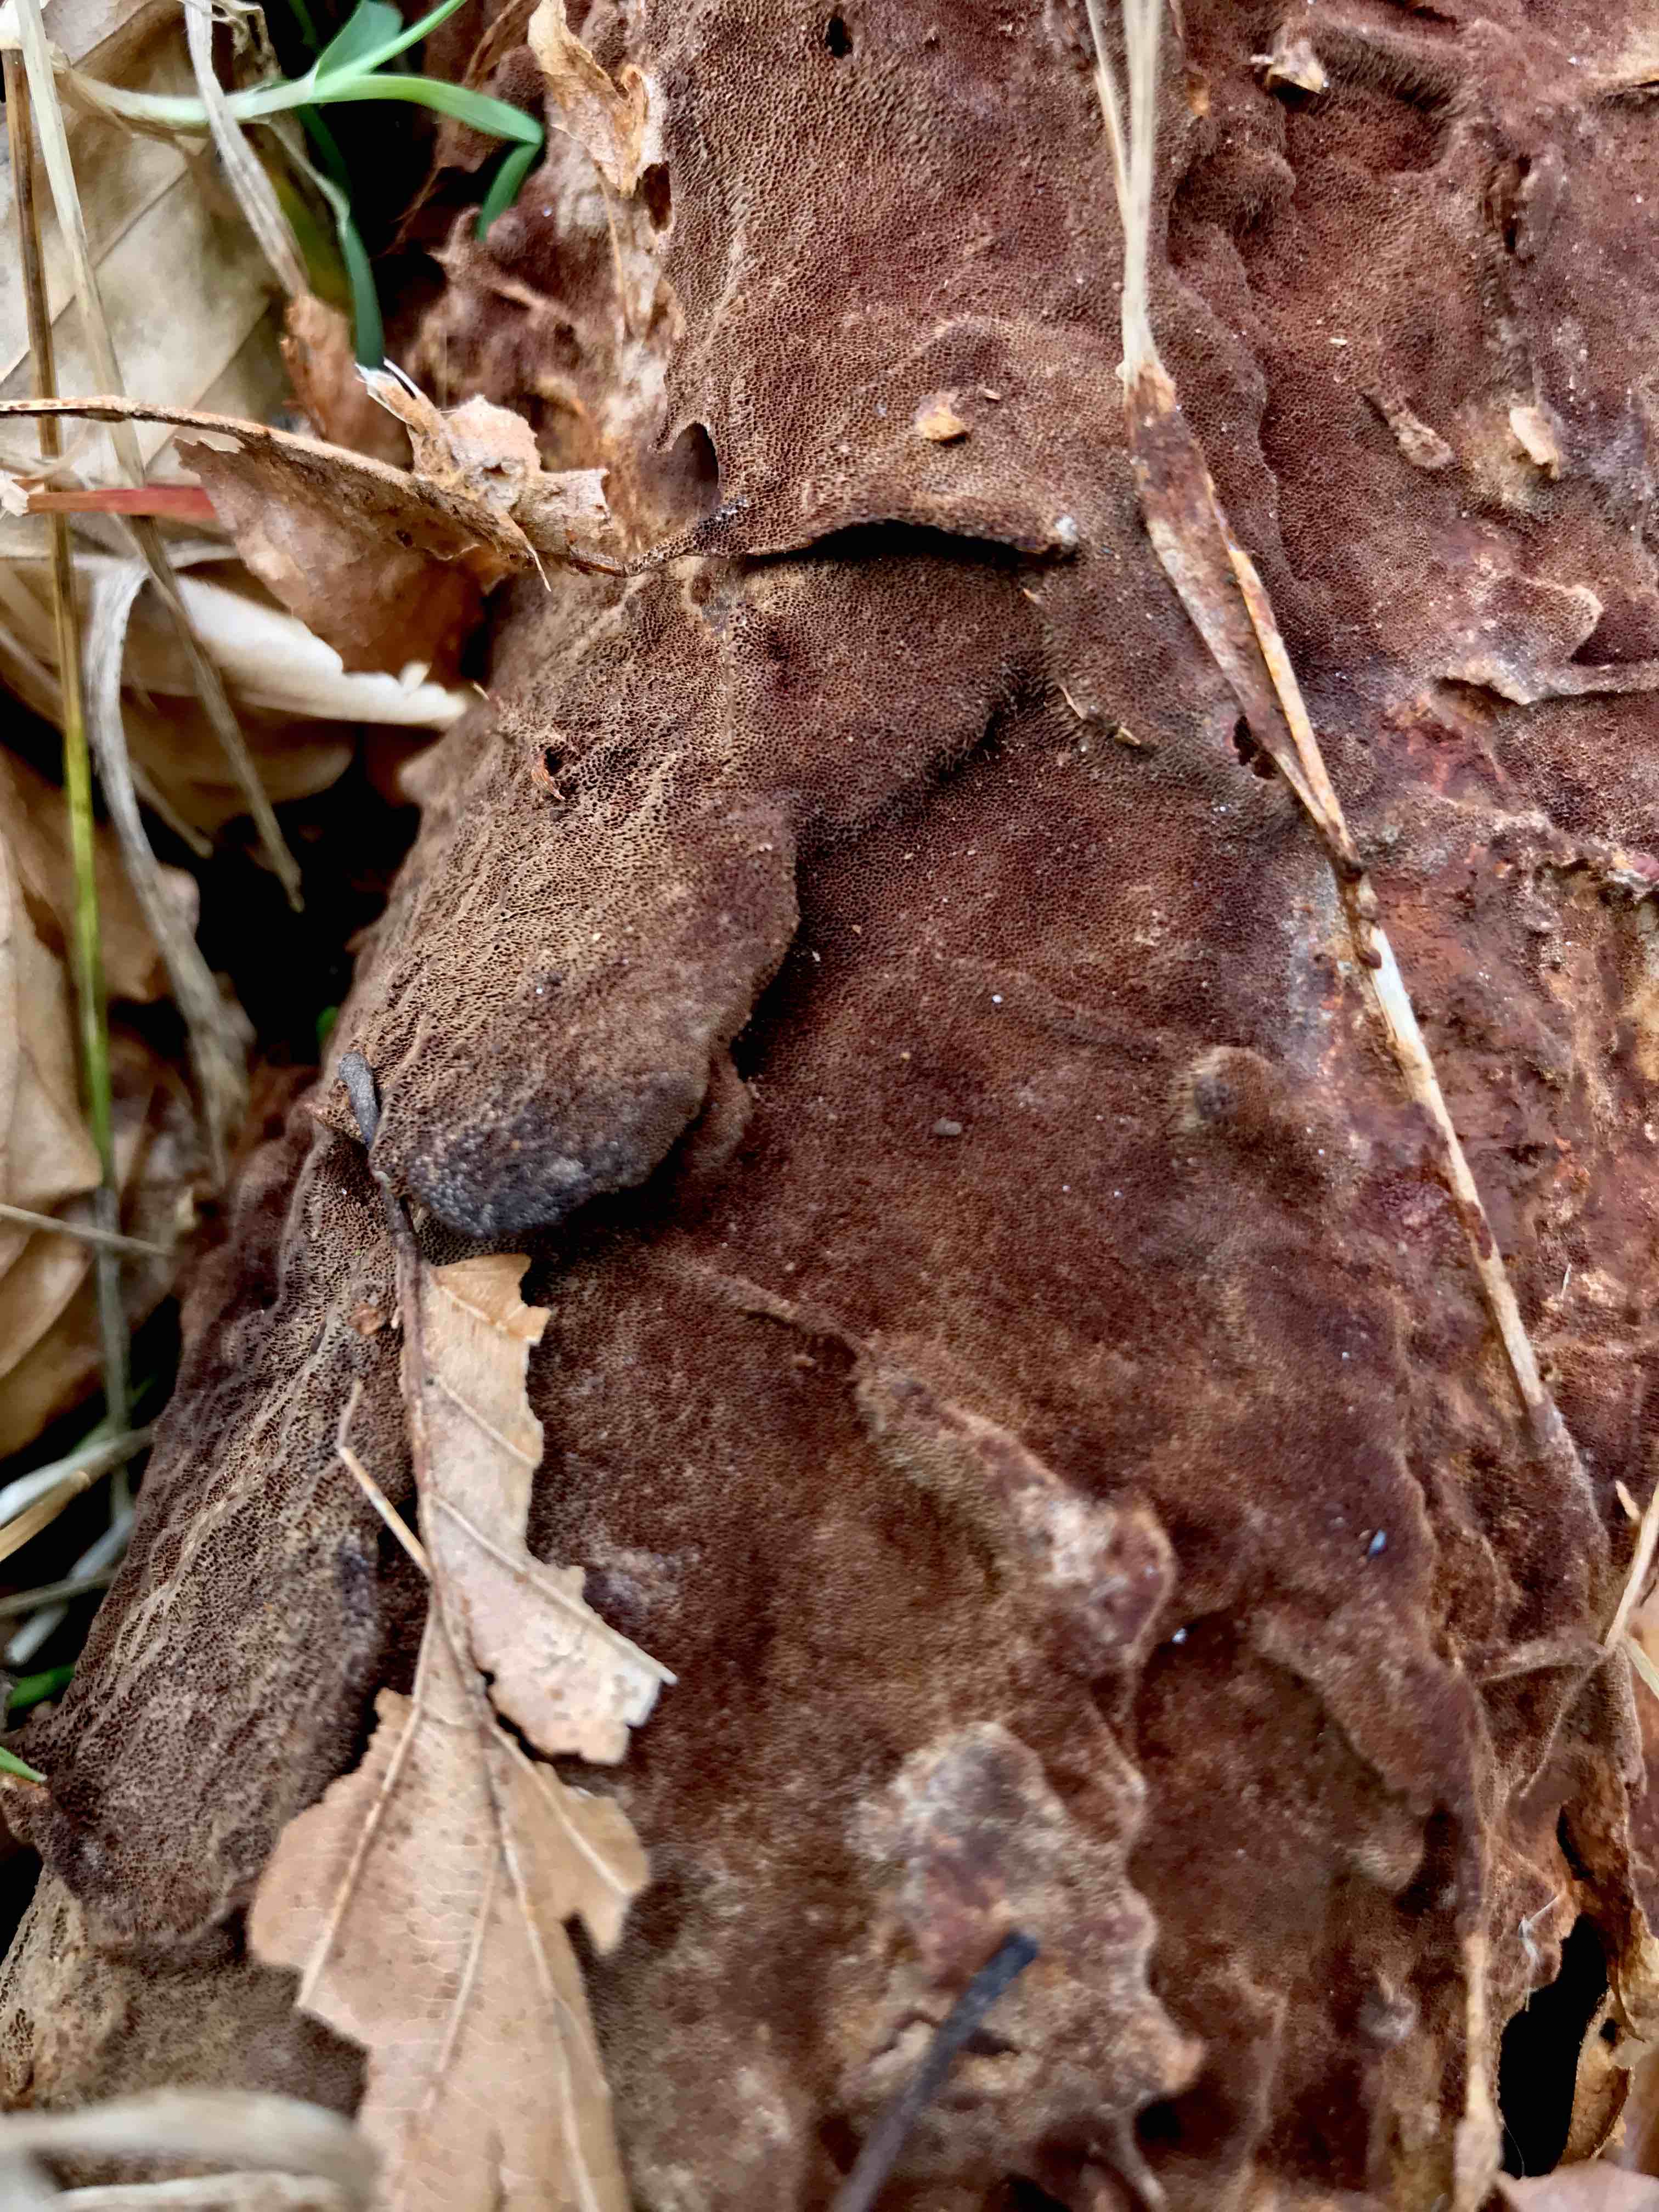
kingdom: Fungi
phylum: Basidiomycota
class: Agaricomycetes
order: Hymenochaetales
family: Hymenochaetaceae
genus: Fuscoporia
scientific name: Fuscoporia ferrea
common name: skorpe-ildporesvamp
